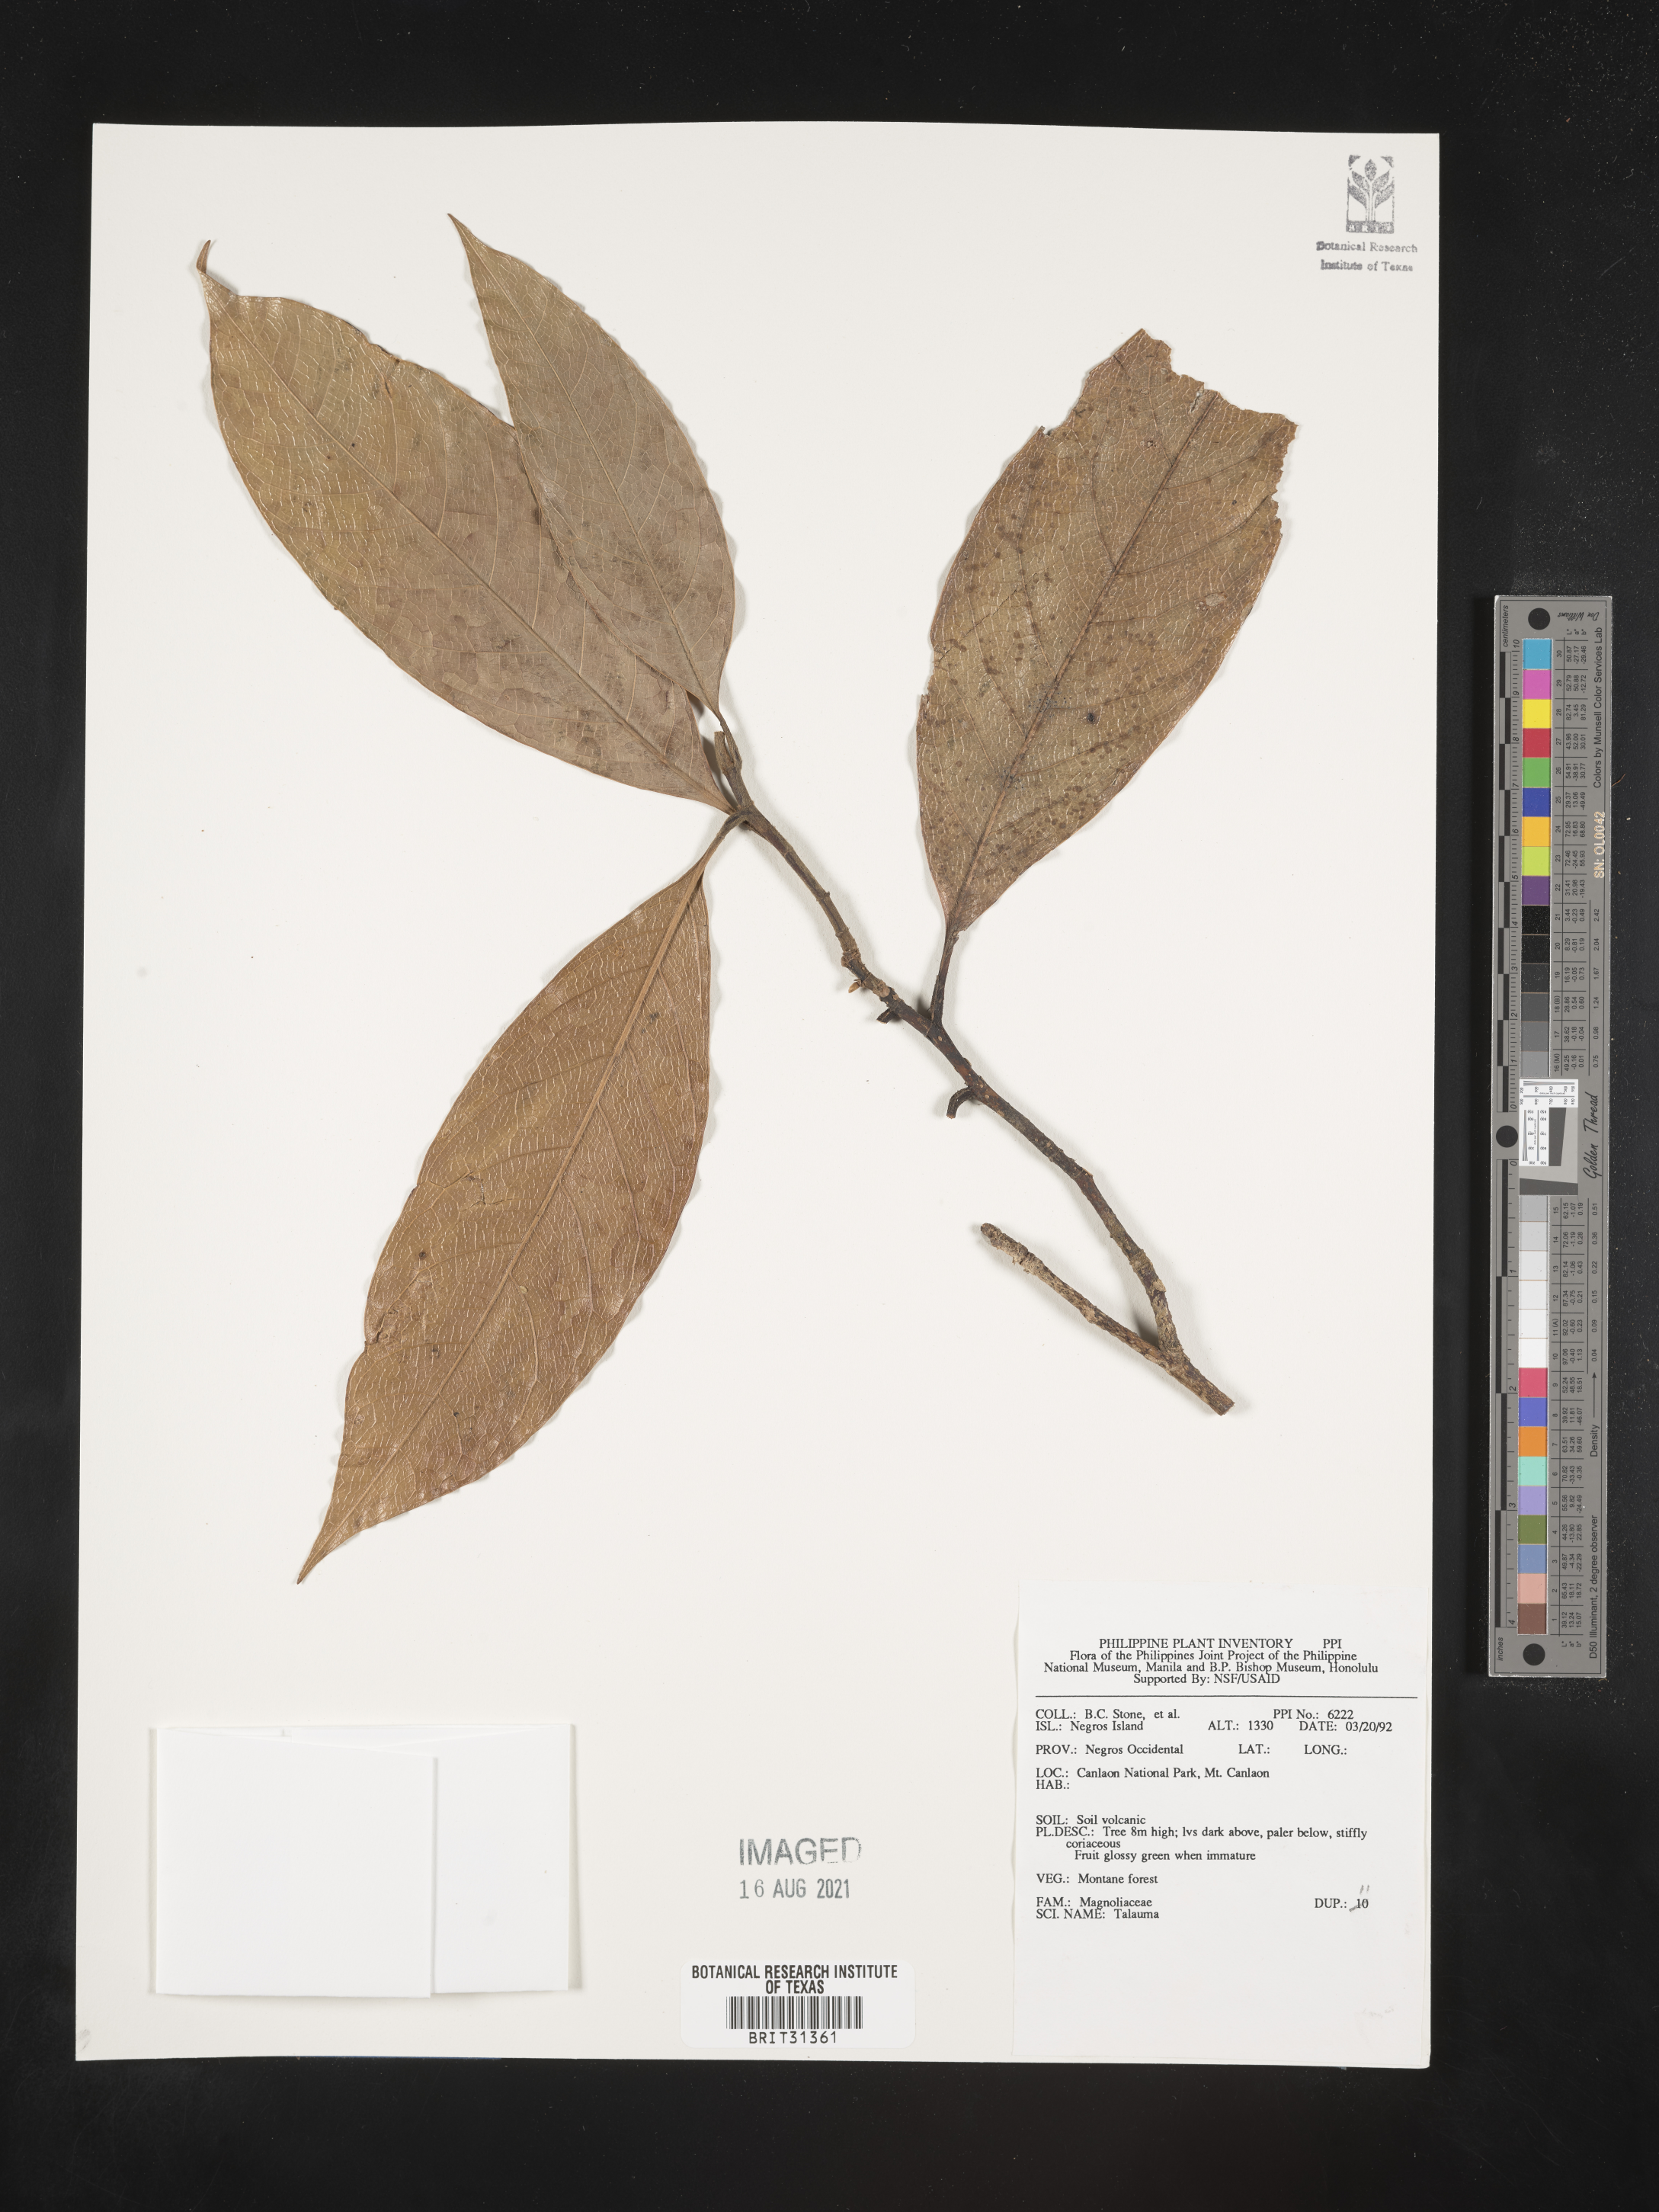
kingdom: Plantae
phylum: Tracheophyta
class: Magnoliopsida
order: Magnoliales
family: Magnoliaceae
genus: Magnolia
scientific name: Magnolia Talauma spec
